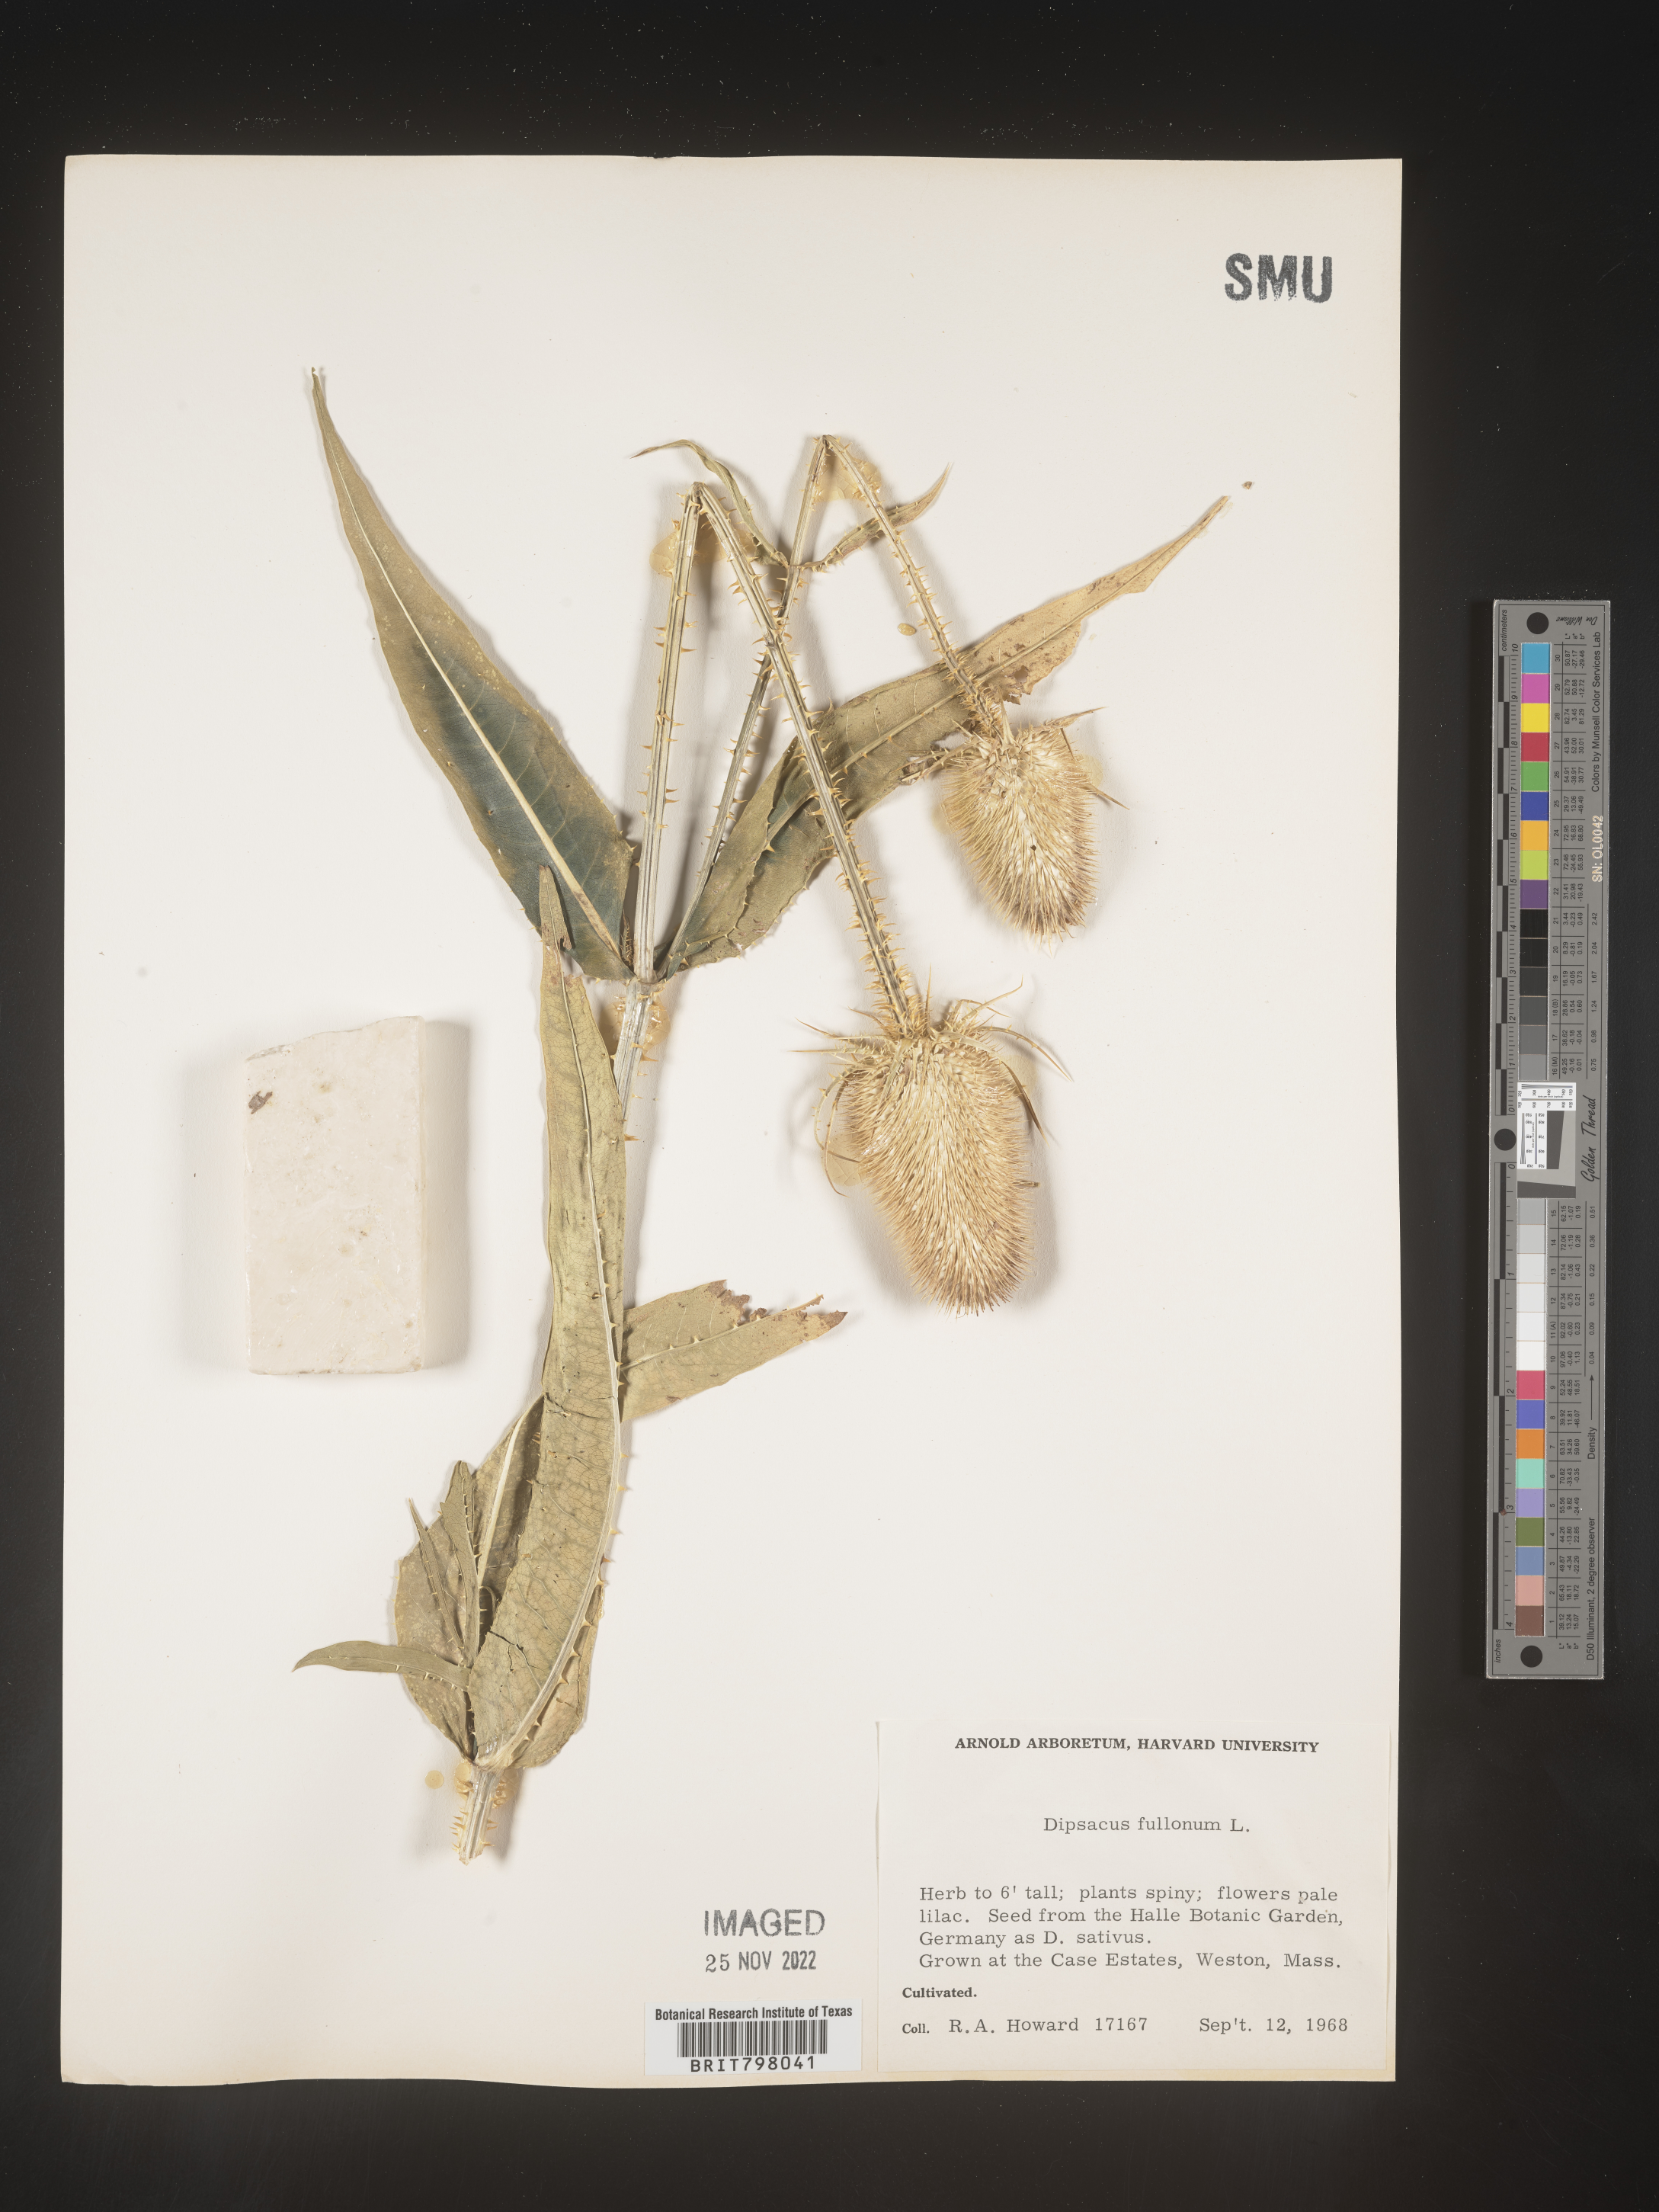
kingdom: Plantae
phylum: Tracheophyta
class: Magnoliopsida
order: Dipsacales
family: Caprifoliaceae
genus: Dipsacus
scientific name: Dipsacus
